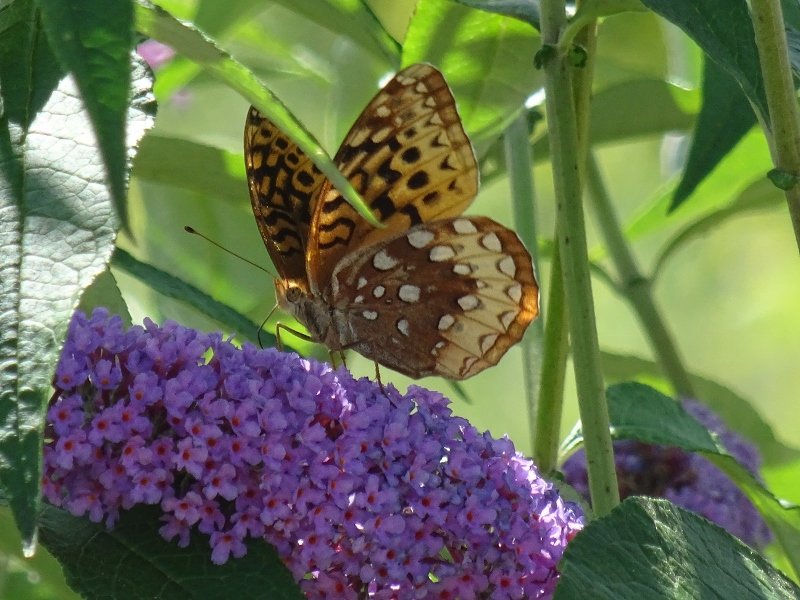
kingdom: Animalia
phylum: Arthropoda
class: Insecta
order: Lepidoptera
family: Nymphalidae
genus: Speyeria
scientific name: Speyeria cybele
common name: Great Spangled Fritillary
